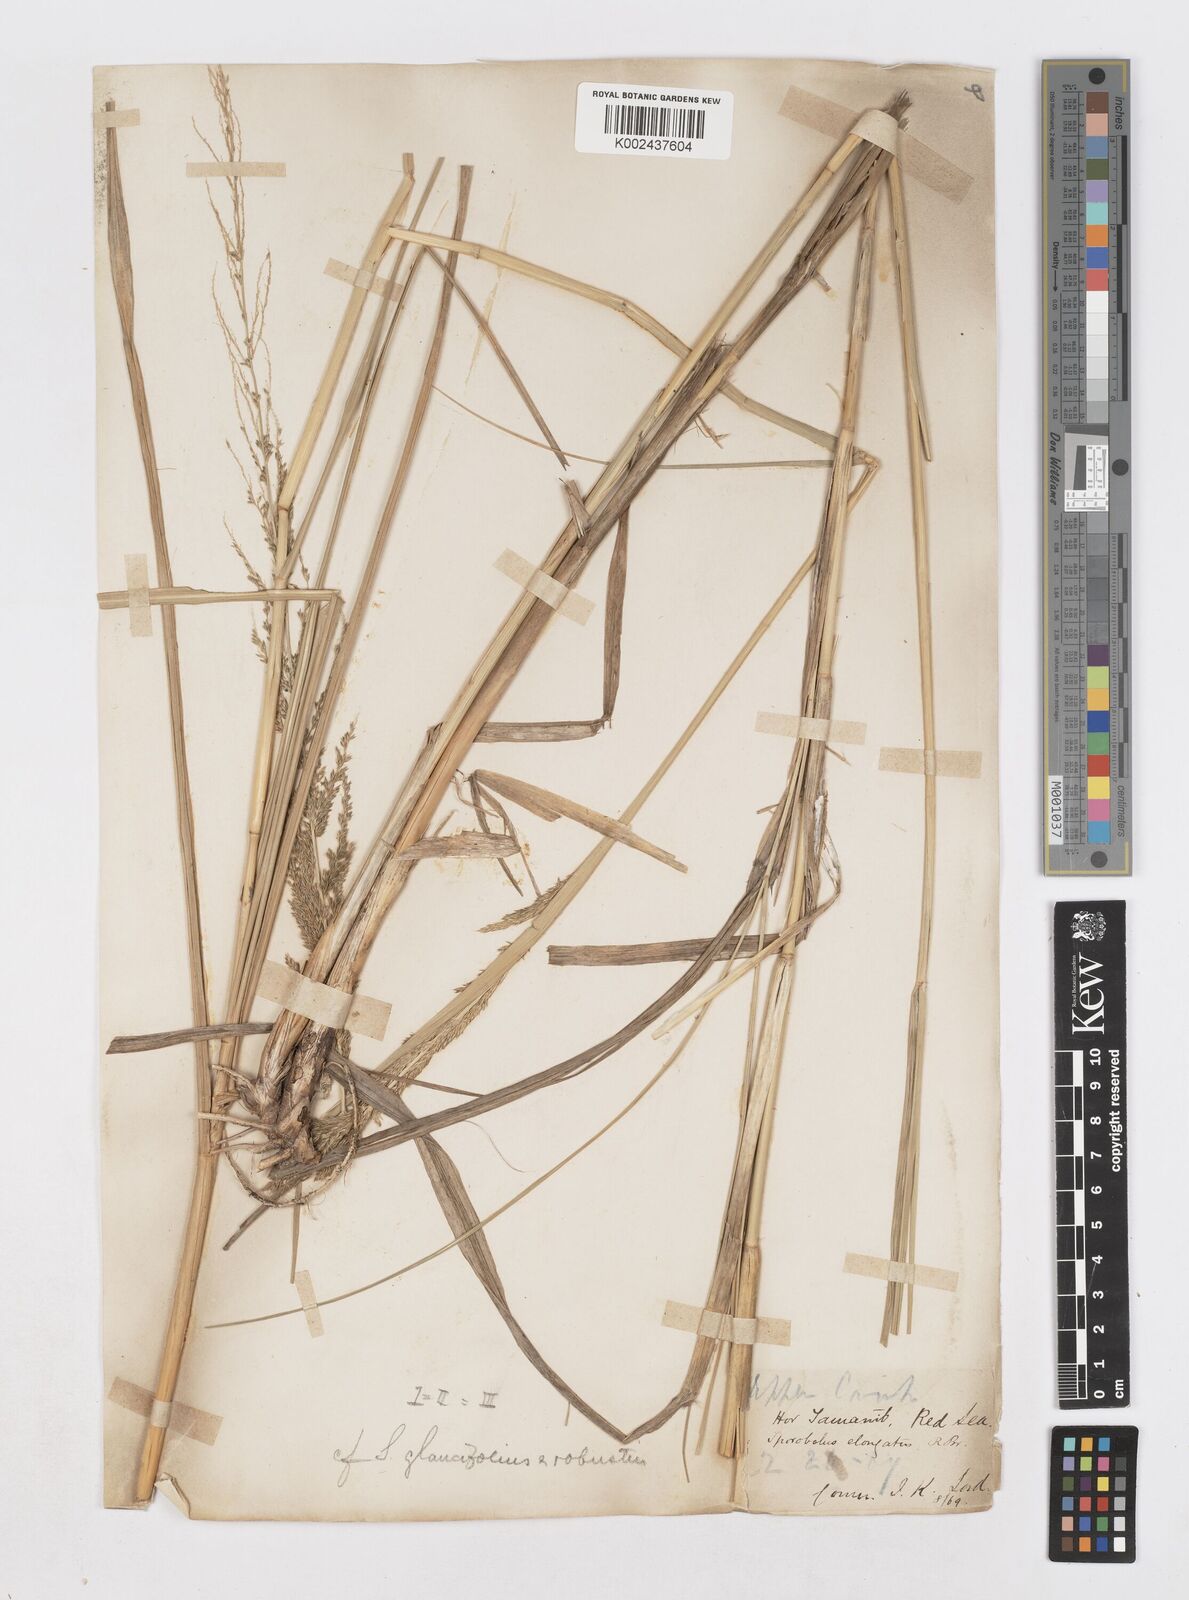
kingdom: Plantae
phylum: Tracheophyta
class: Liliopsida
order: Poales
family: Poaceae
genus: Sporobolus
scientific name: Sporobolus consimilis
